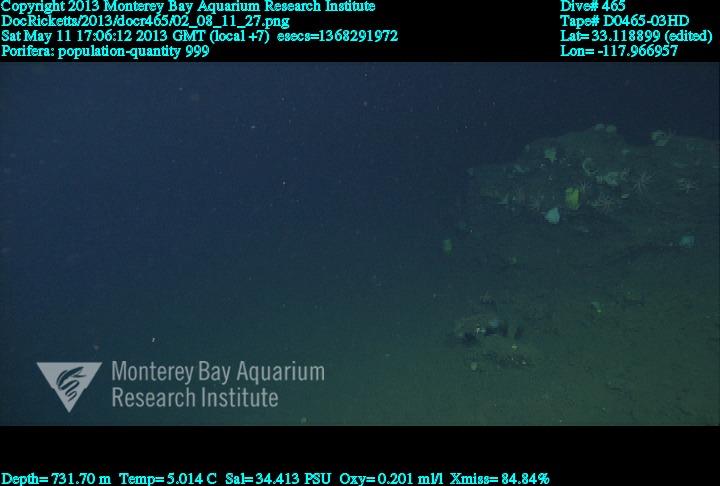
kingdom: Animalia
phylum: Porifera
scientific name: Porifera
